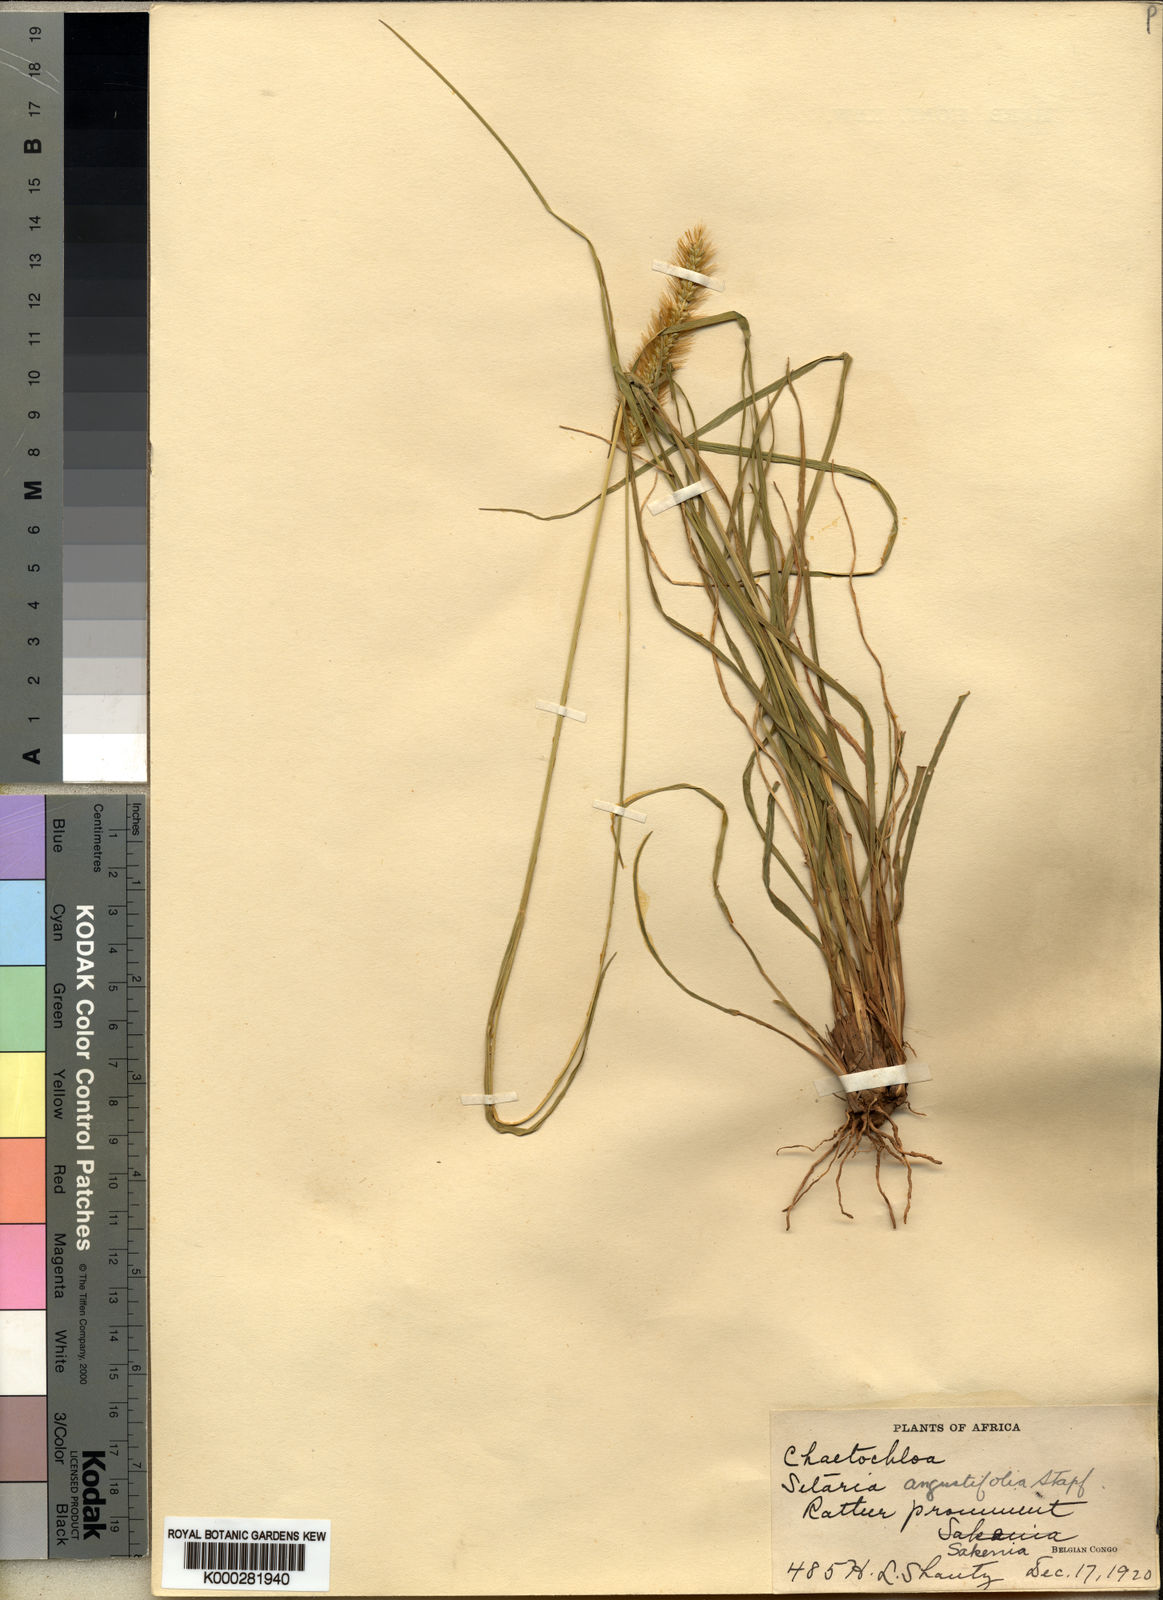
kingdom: Plantae
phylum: Tracheophyta
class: Liliopsida
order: Poales
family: Poaceae
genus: Setaria
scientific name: Setaria sphacelata
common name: African bristlegrass
